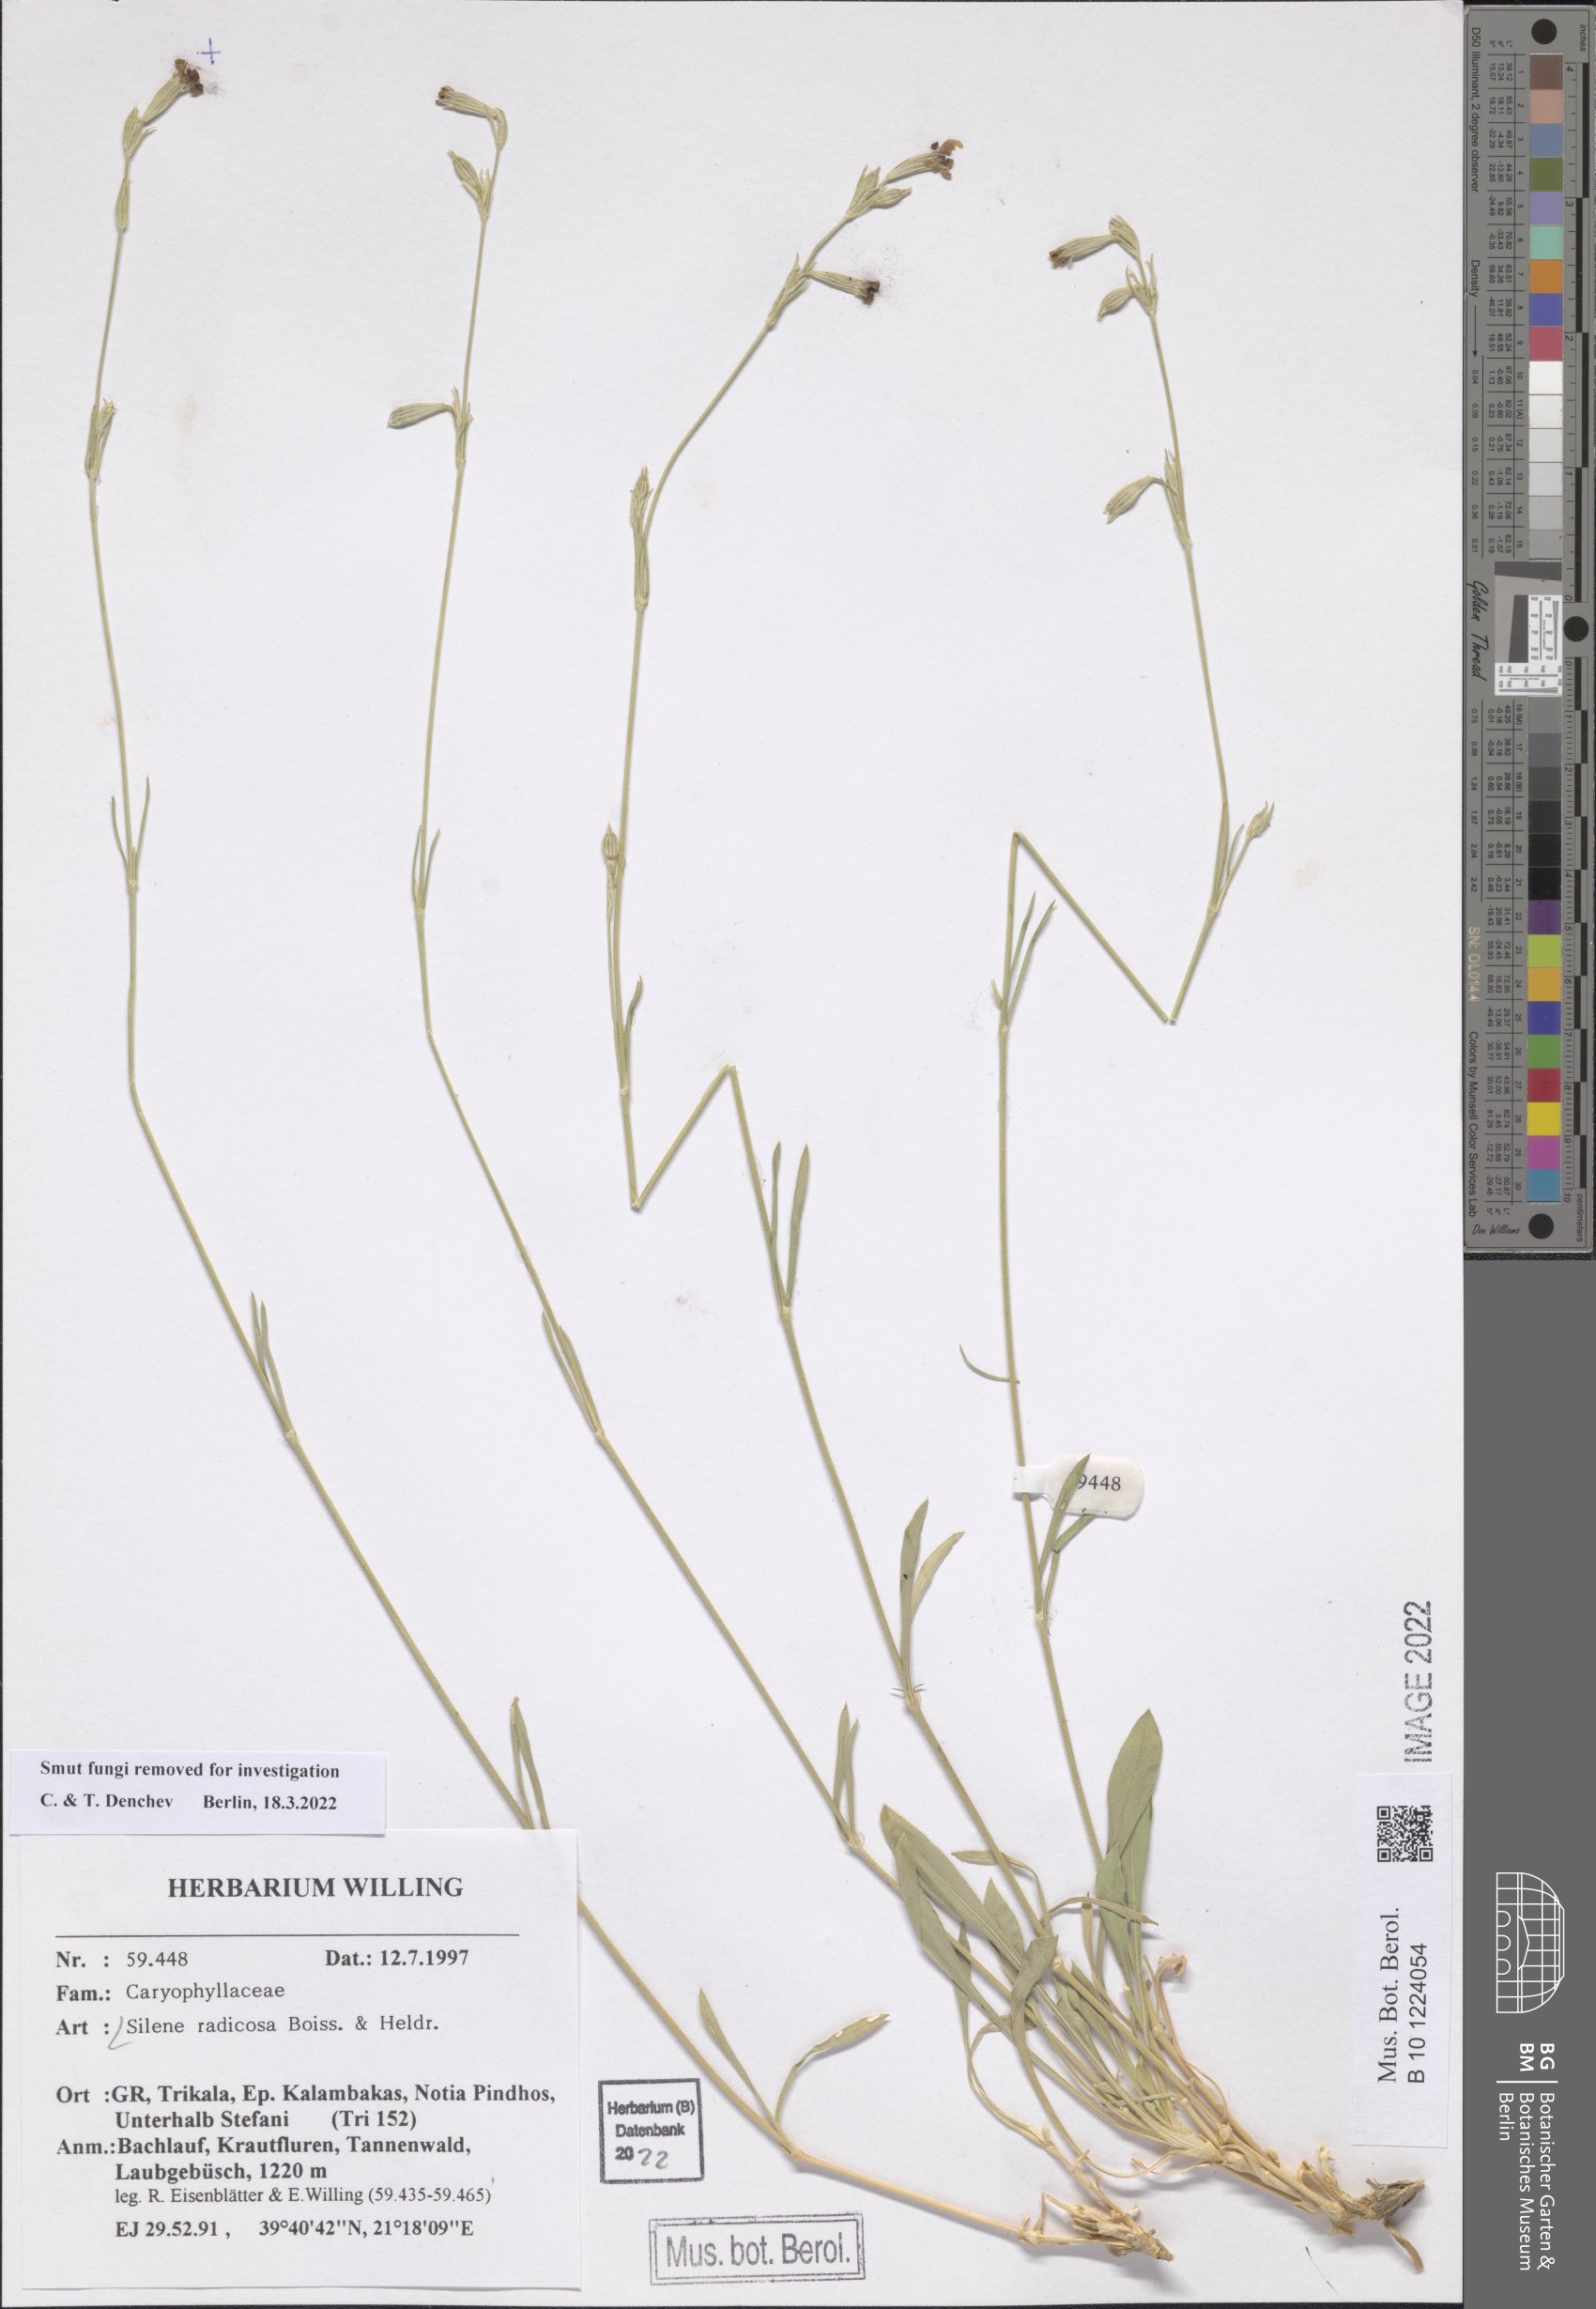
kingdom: Plantae
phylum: Tracheophyta
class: Magnoliopsida
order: Caryophyllales
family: Caryophyllaceae
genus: Silene
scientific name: Silene radicosa
